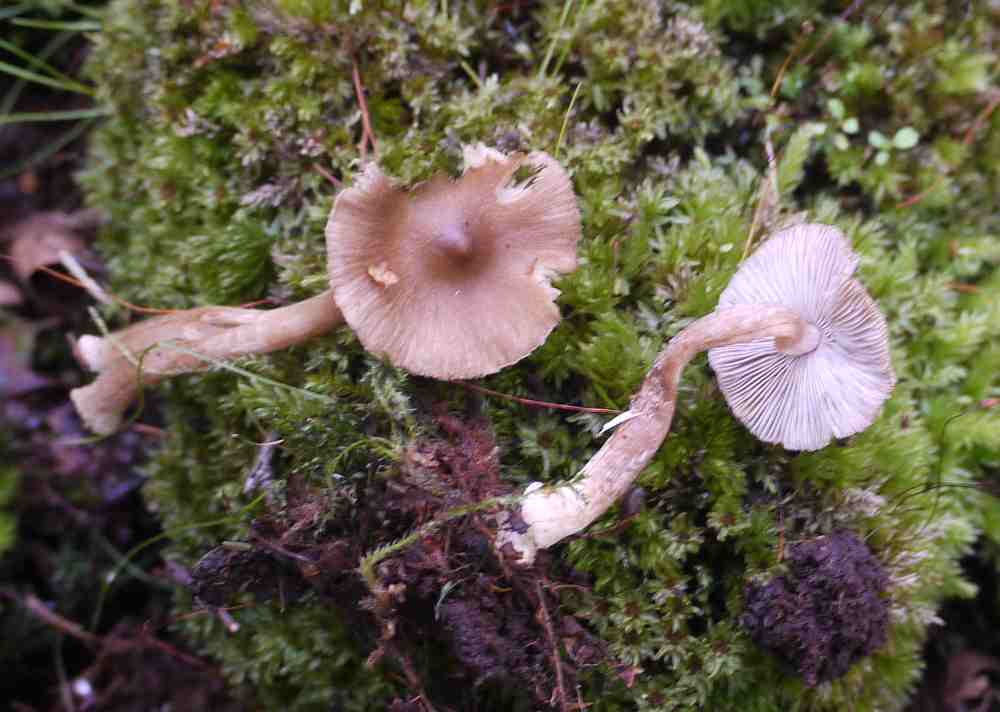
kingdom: Fungi
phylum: Basidiomycota
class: Agaricomycetes
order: Agaricales
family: Inocybaceae
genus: Inocybe
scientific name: Inocybe
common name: trævlhat
